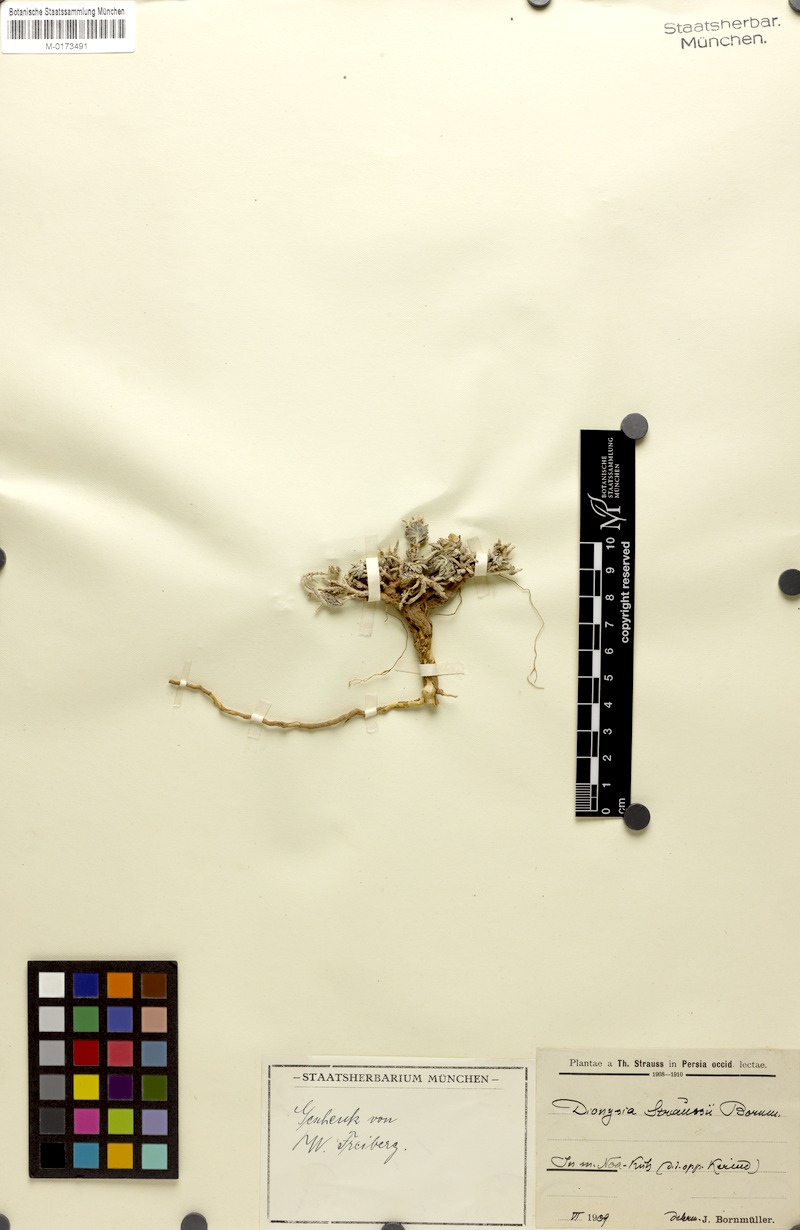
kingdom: Plantae
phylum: Tracheophyta
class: Magnoliopsida
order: Lamiales
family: Lamiaceae
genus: Teucrium
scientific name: Teucrium
